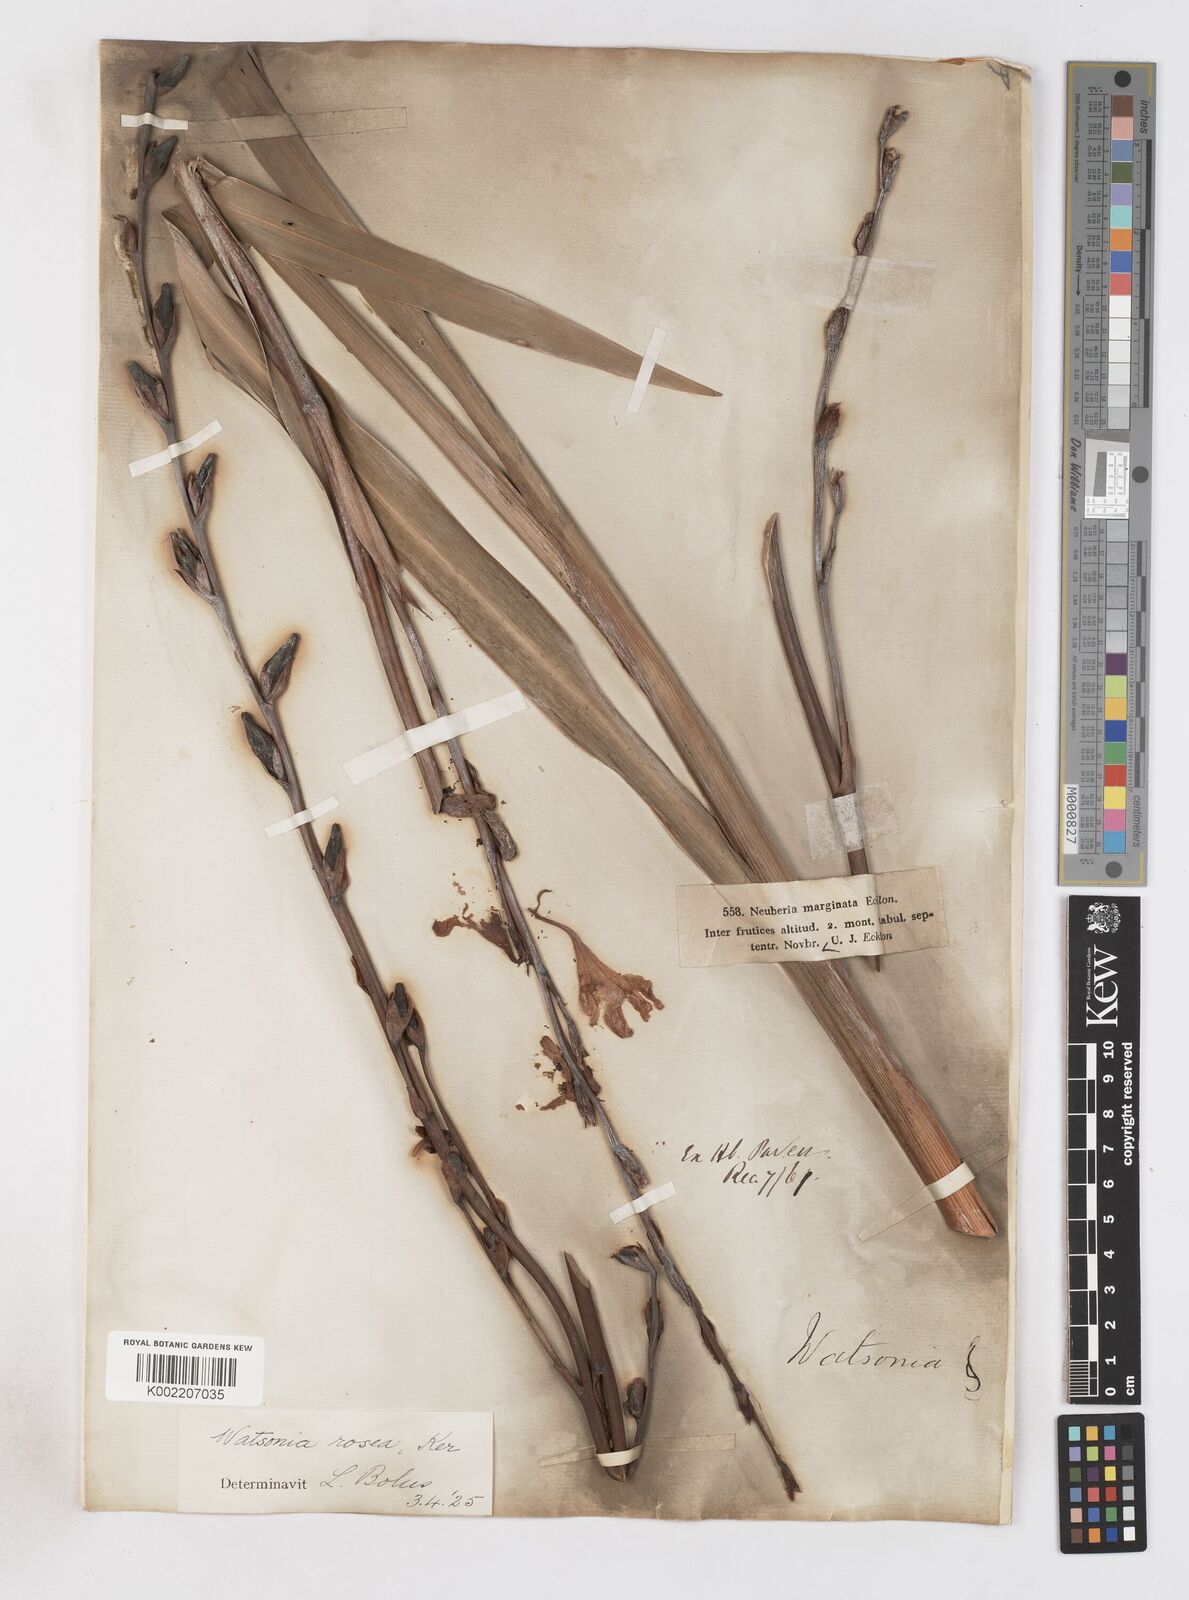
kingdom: Plantae
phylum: Tracheophyta
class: Liliopsida
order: Asparagales
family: Iridaceae
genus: Watsonia
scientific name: Watsonia borbonica
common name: Bugle-lily
